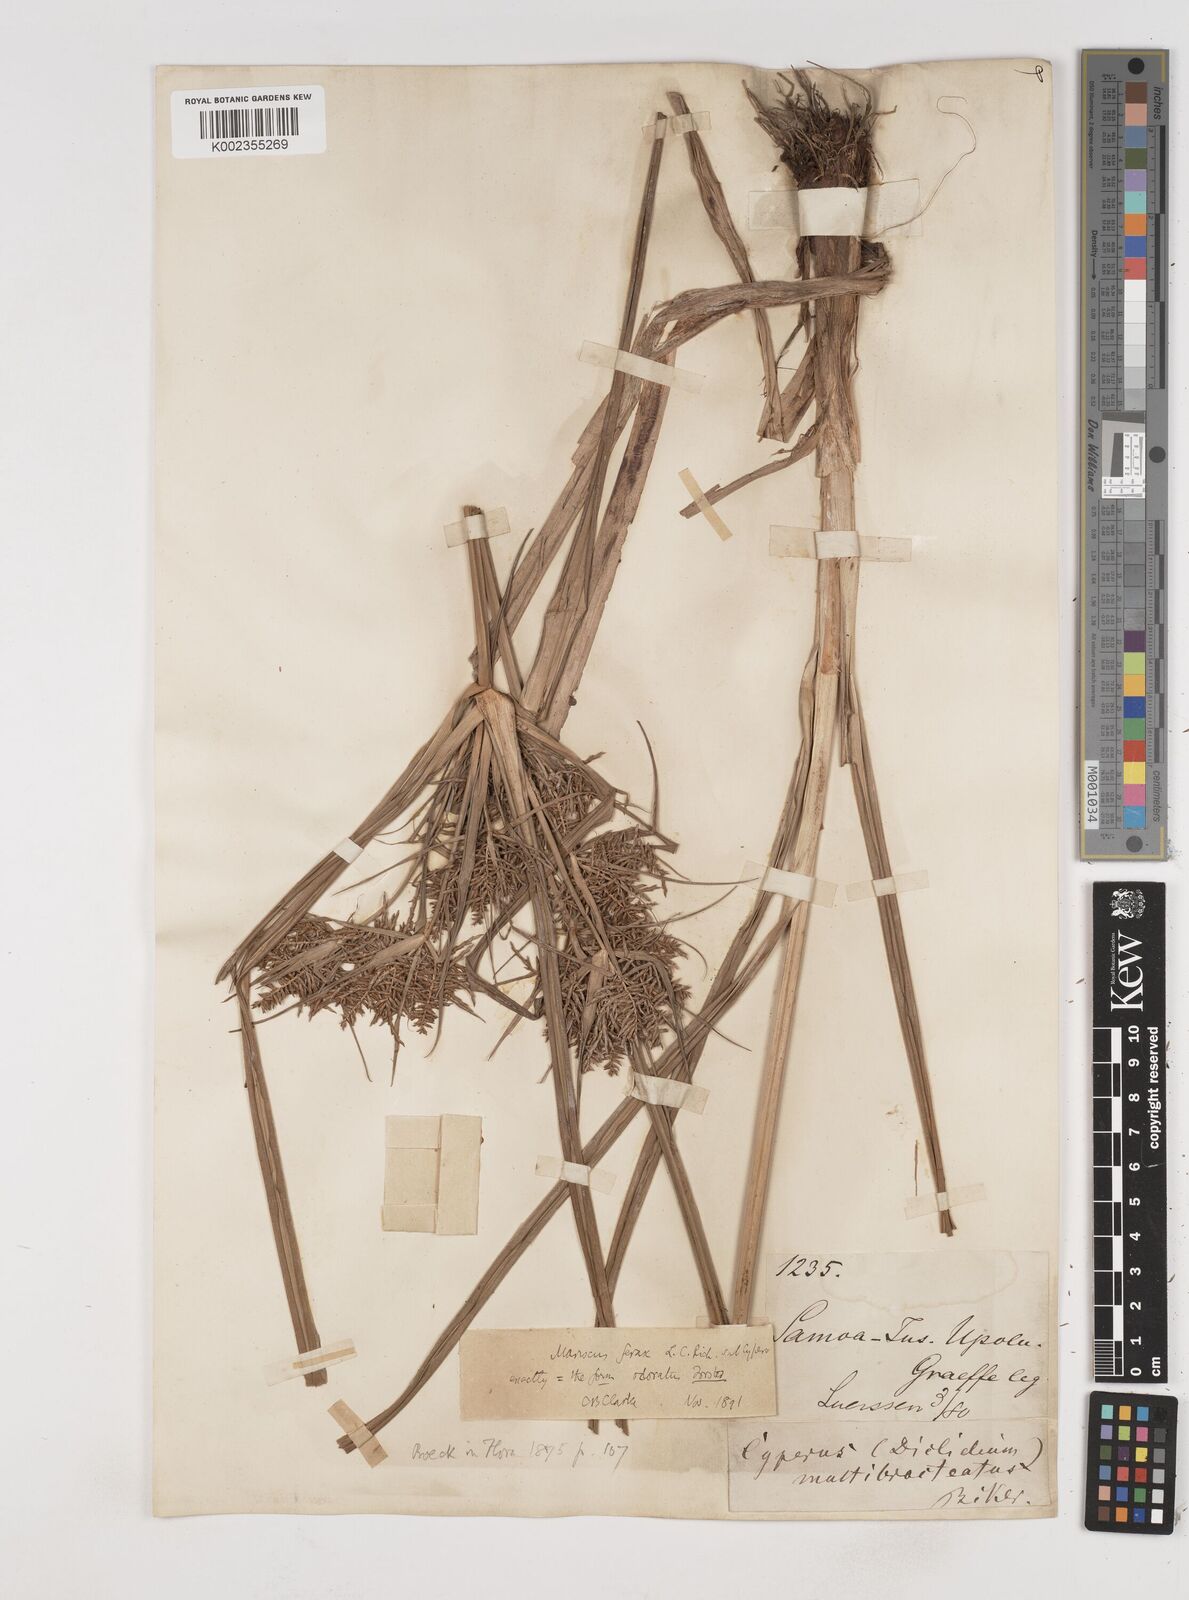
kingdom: Plantae
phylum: Tracheophyta
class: Liliopsida
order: Poales
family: Cyperaceae
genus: Cyperus
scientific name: Cyperus odoratus
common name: Fragrant flatsedge
